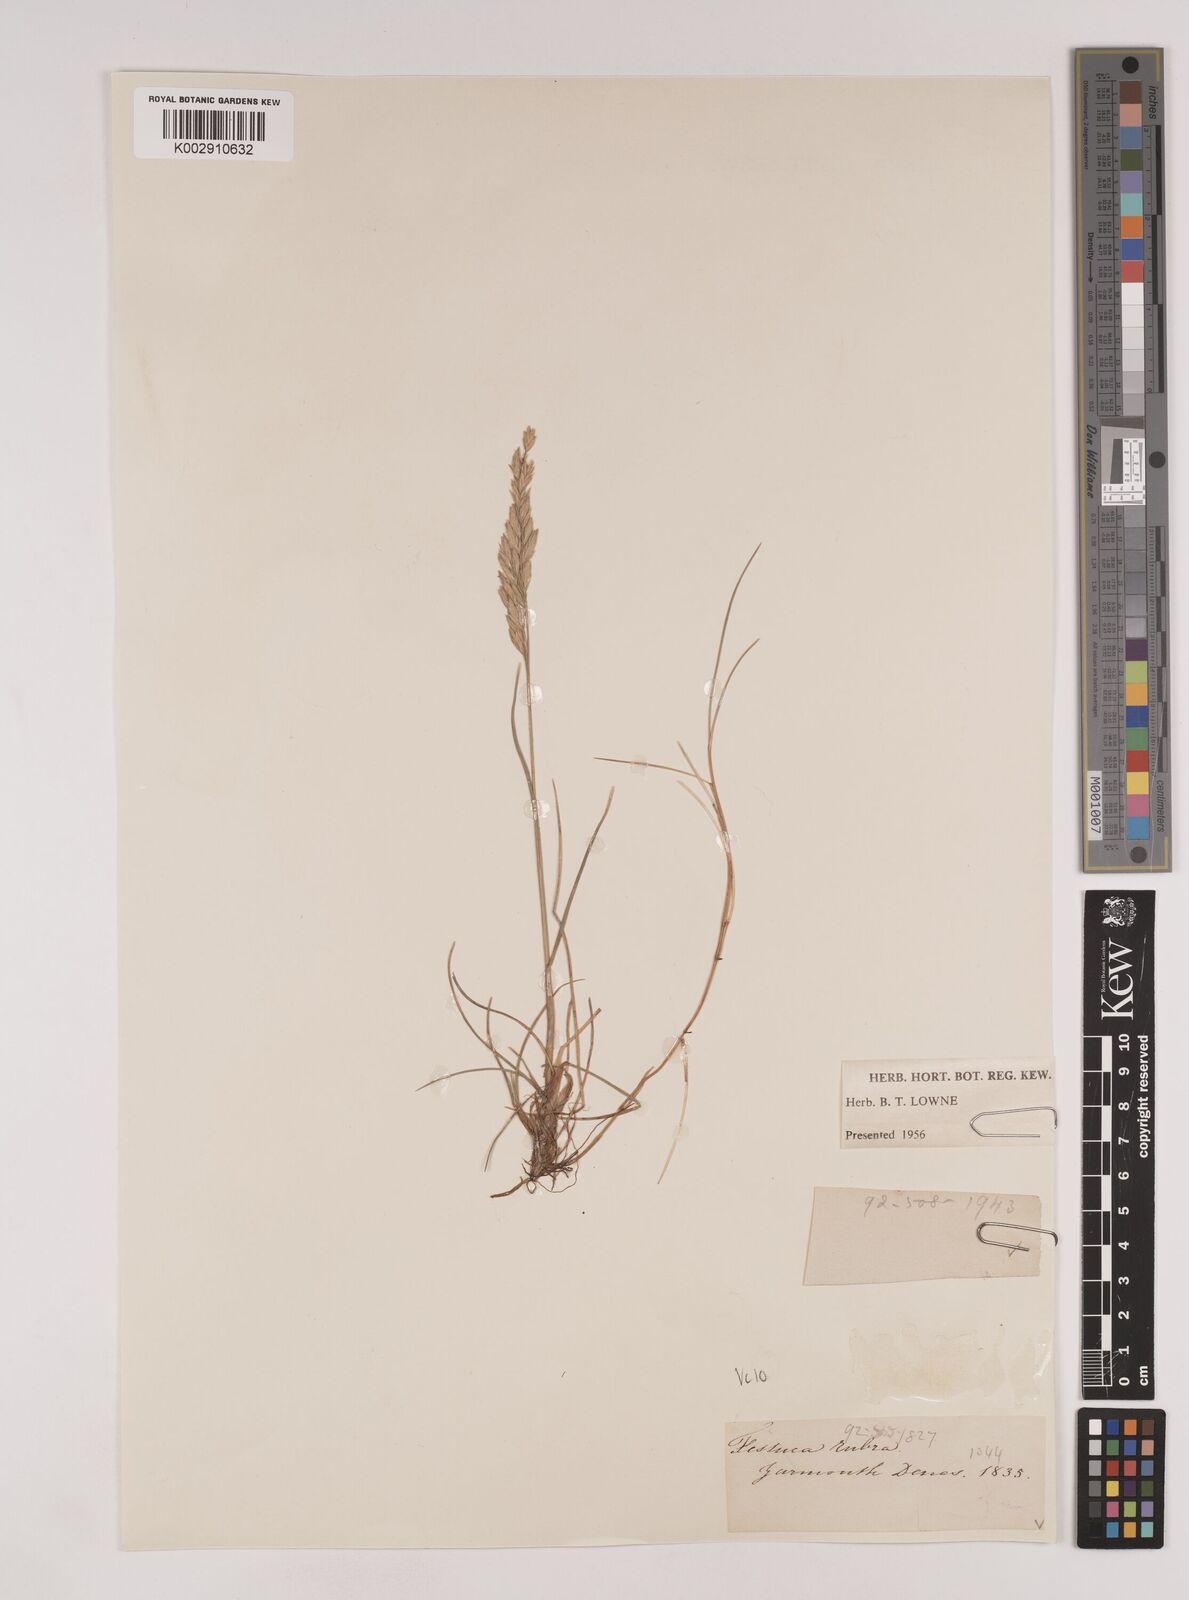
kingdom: Plantae
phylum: Tracheophyta
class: Liliopsida
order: Poales
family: Poaceae
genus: Festuca
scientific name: Festuca rubra
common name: Red fescue
